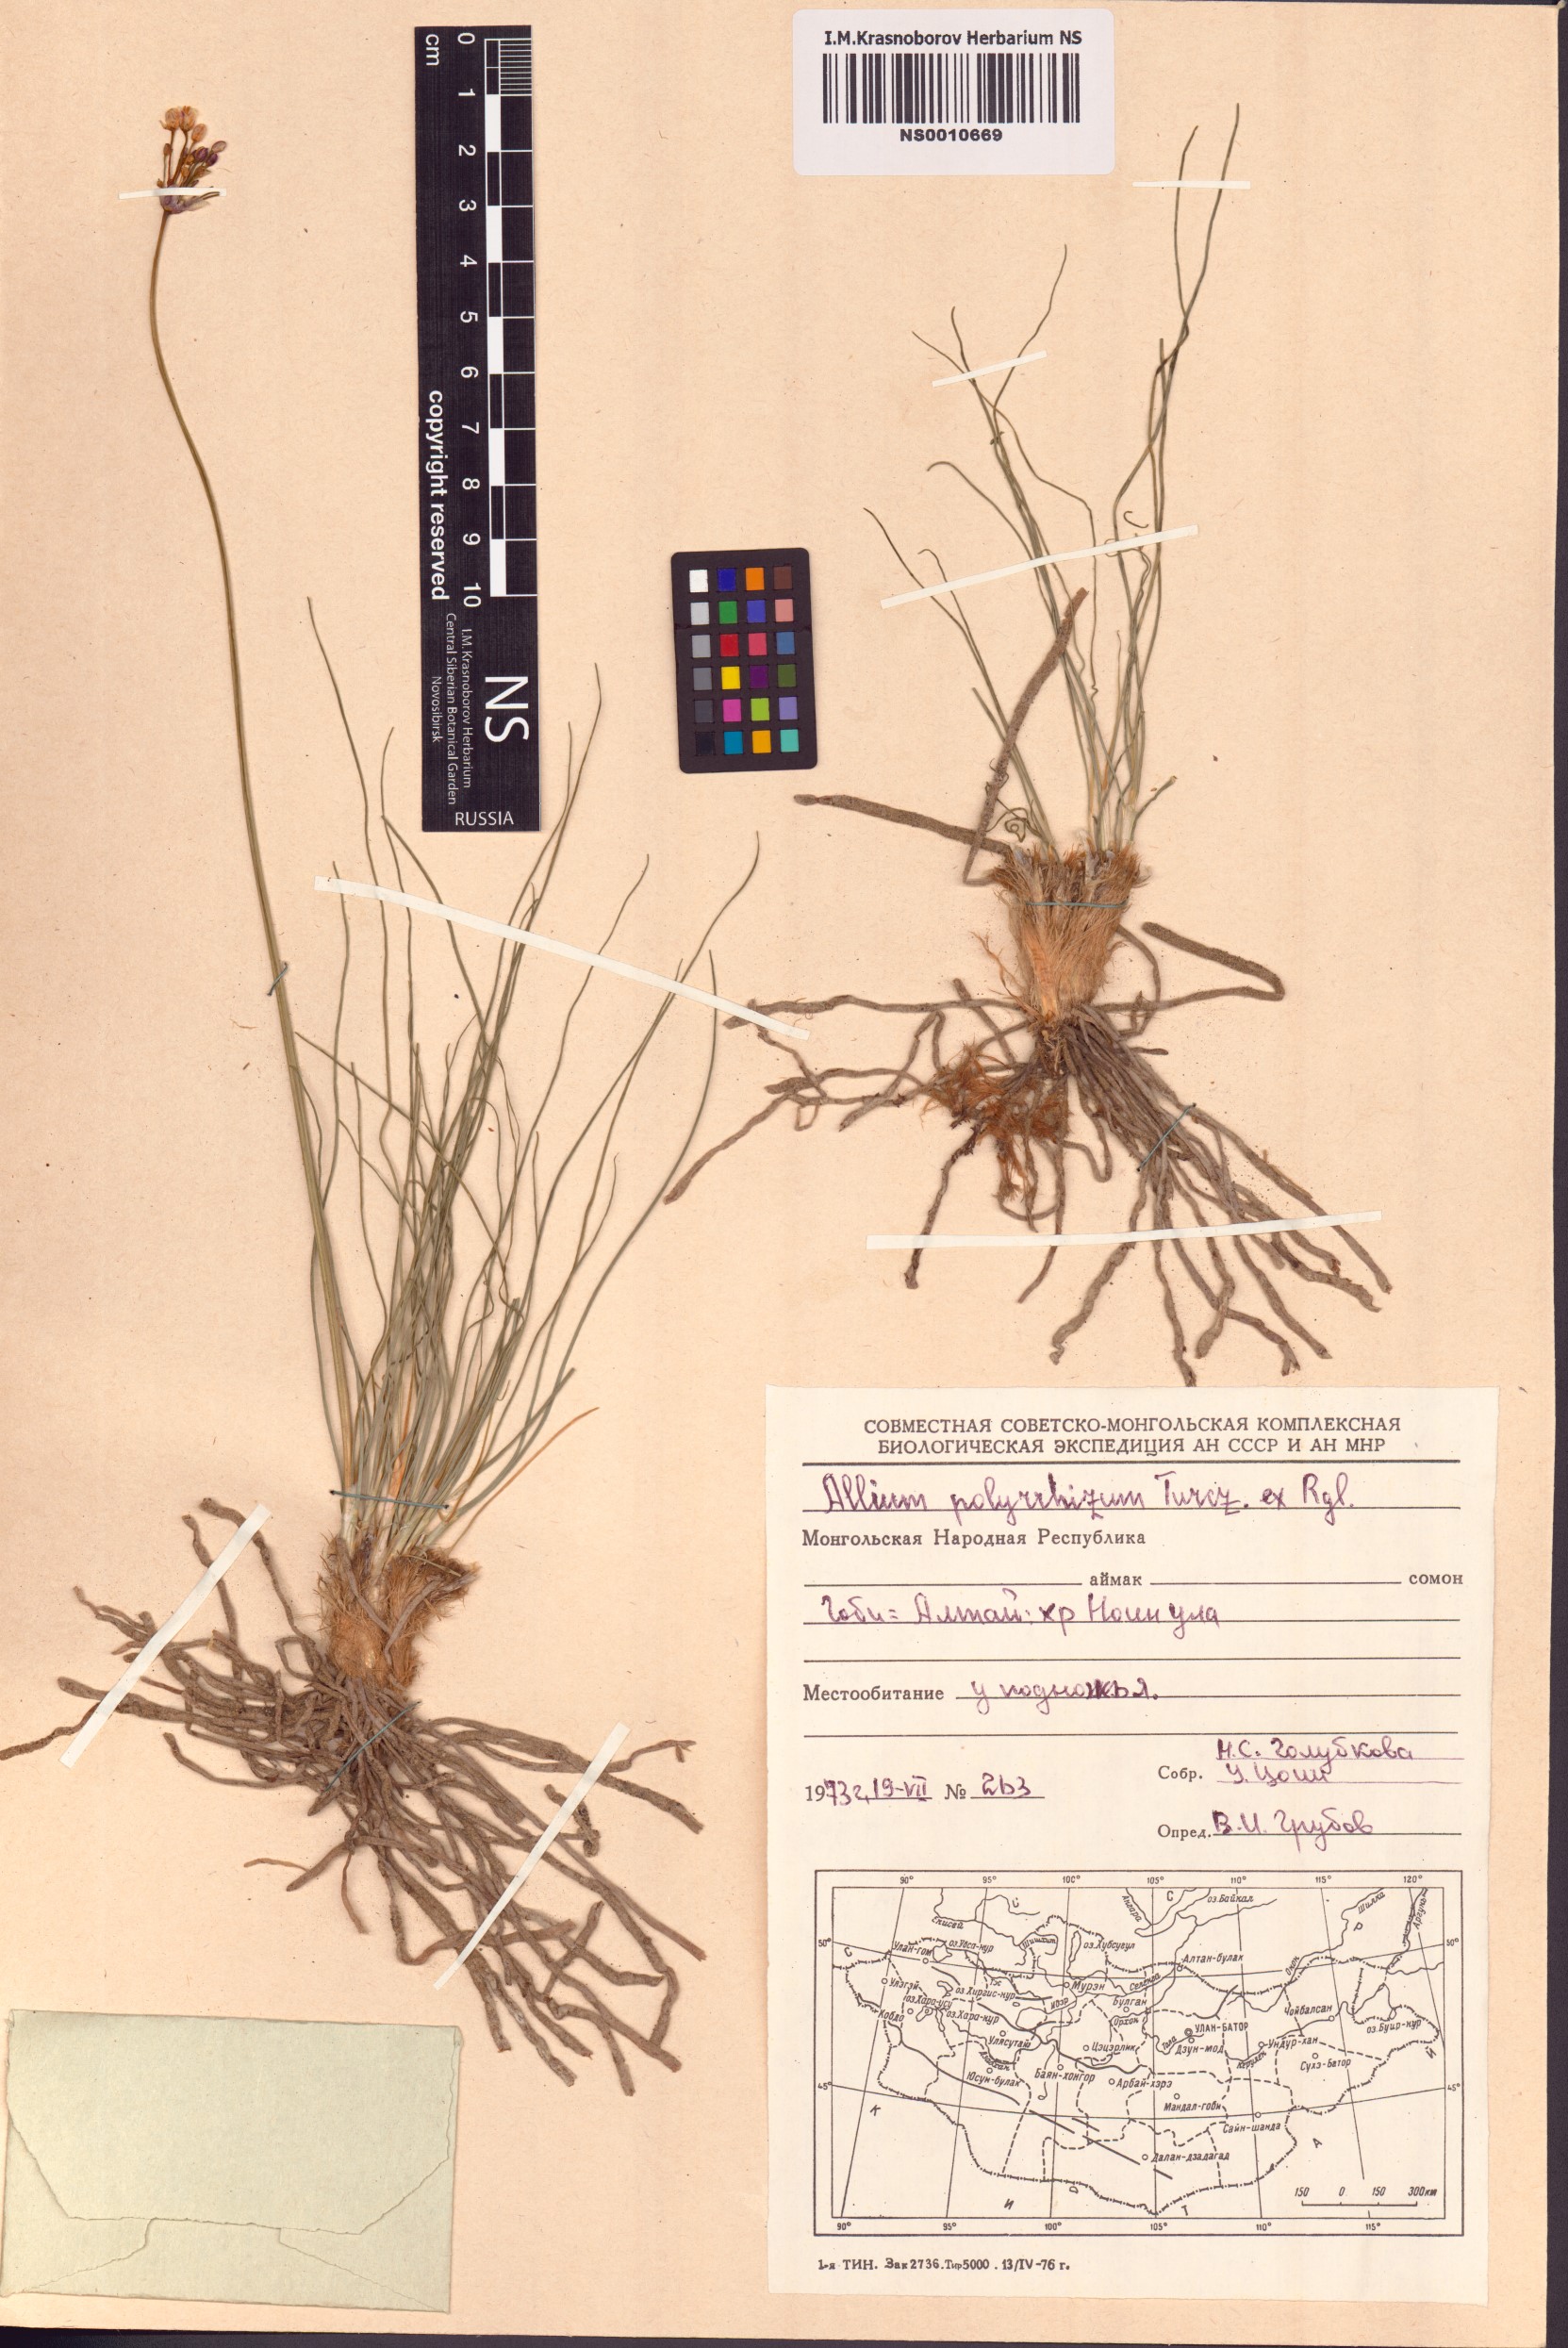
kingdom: Plantae
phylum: Tracheophyta
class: Liliopsida
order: Asparagales
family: Amaryllidaceae
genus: Allium
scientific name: Allium polyrhizum
